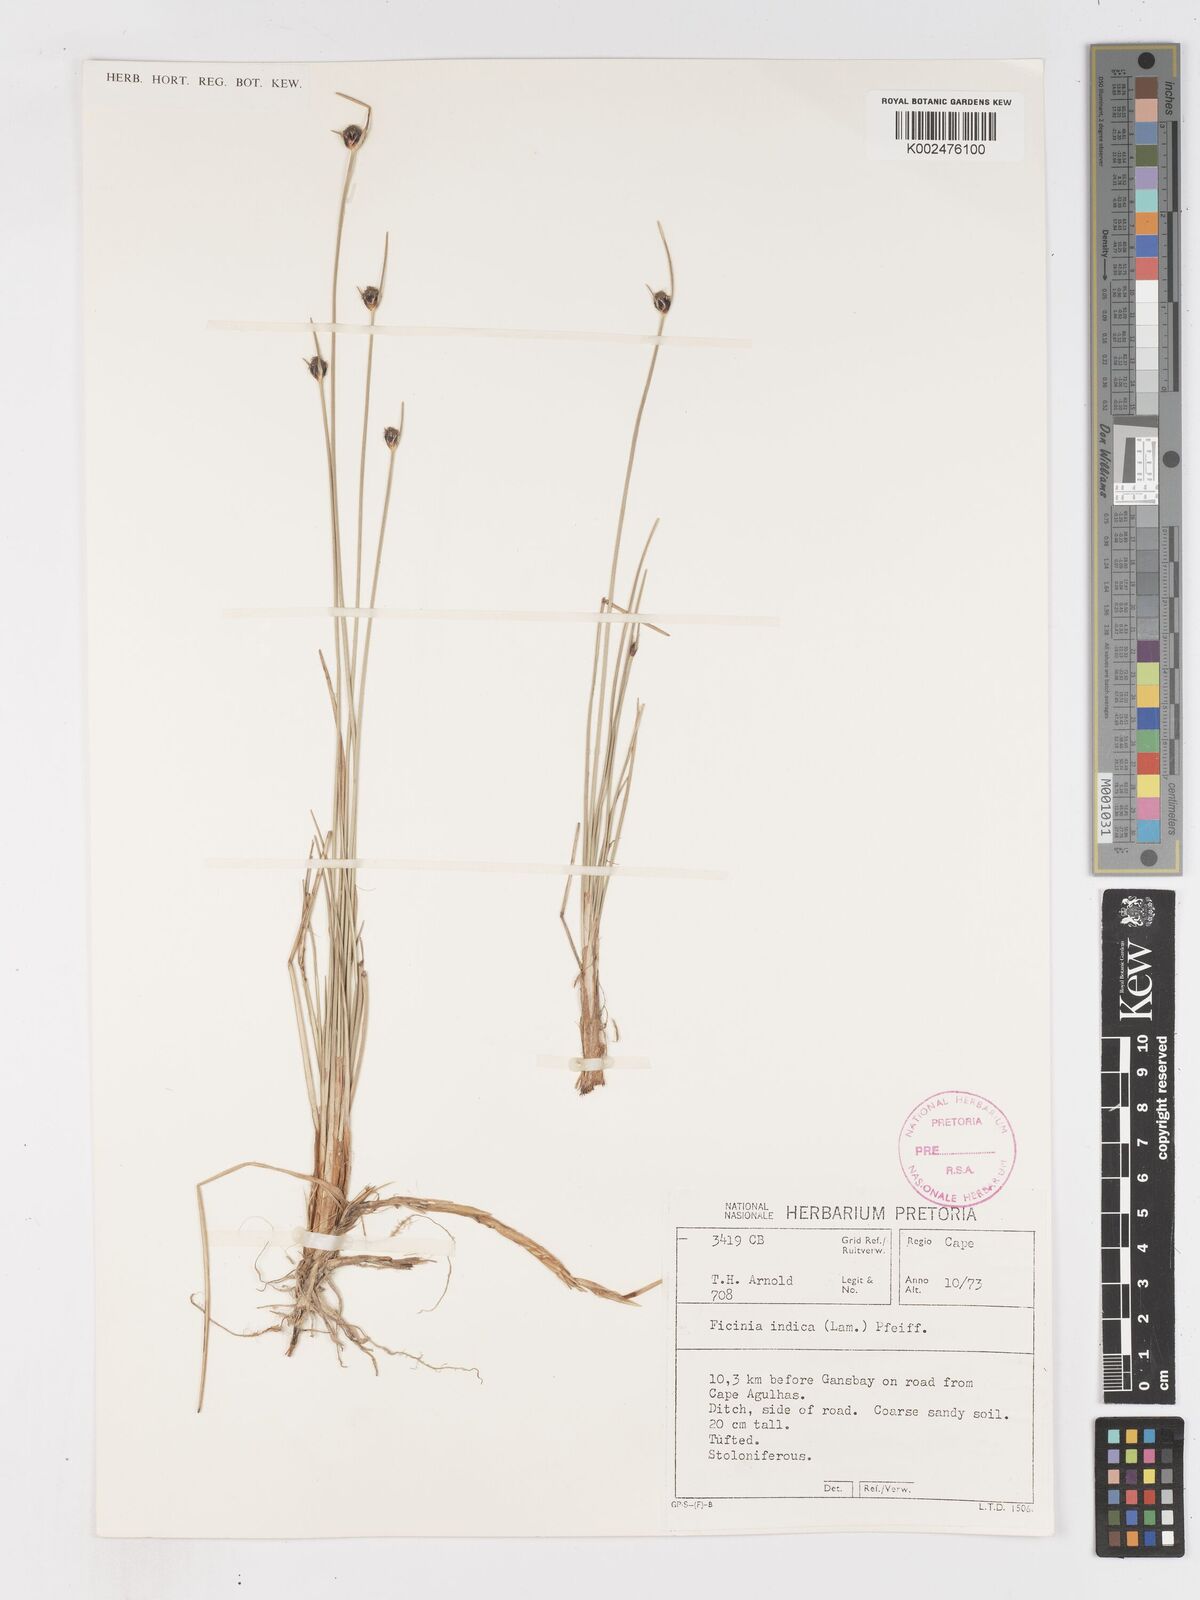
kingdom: Plantae
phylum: Tracheophyta
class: Liliopsida
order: Poales
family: Cyperaceae
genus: Ficinia
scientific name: Ficinia indica
